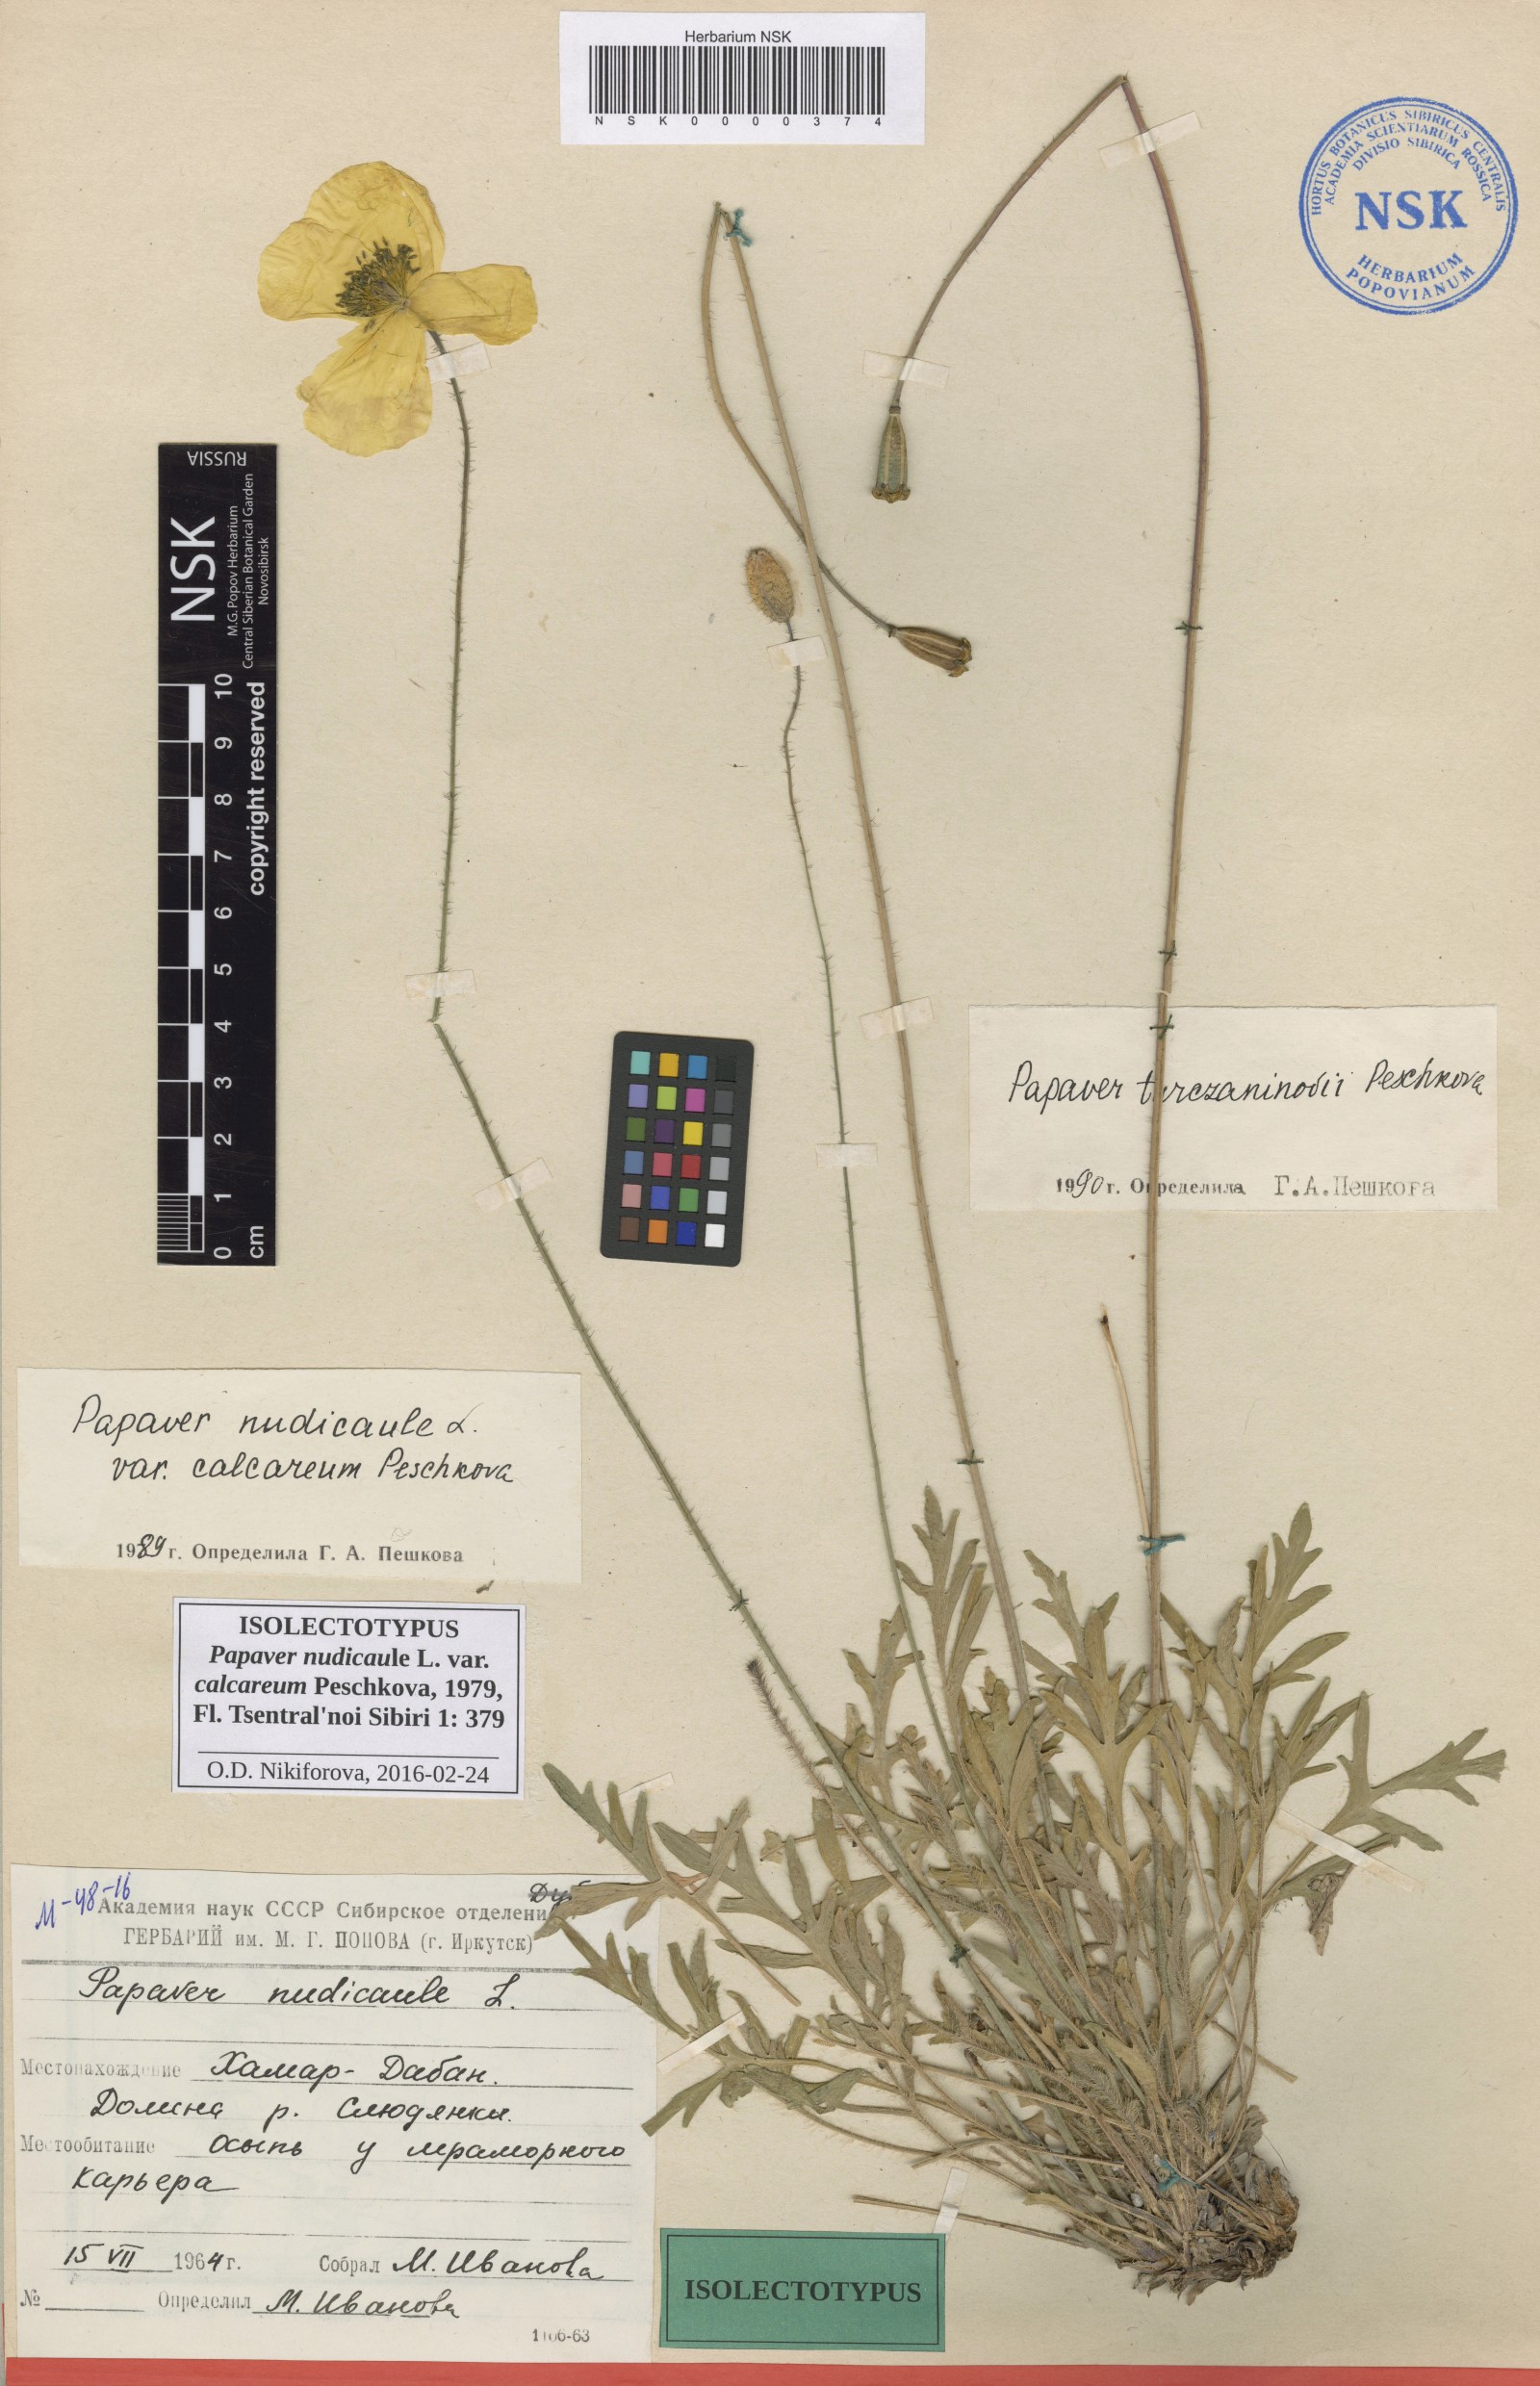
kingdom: Plantae
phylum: Tracheophyta
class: Magnoliopsida
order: Ranunculales
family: Papaveraceae
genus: Papaver
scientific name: Papaver turczaninovii
